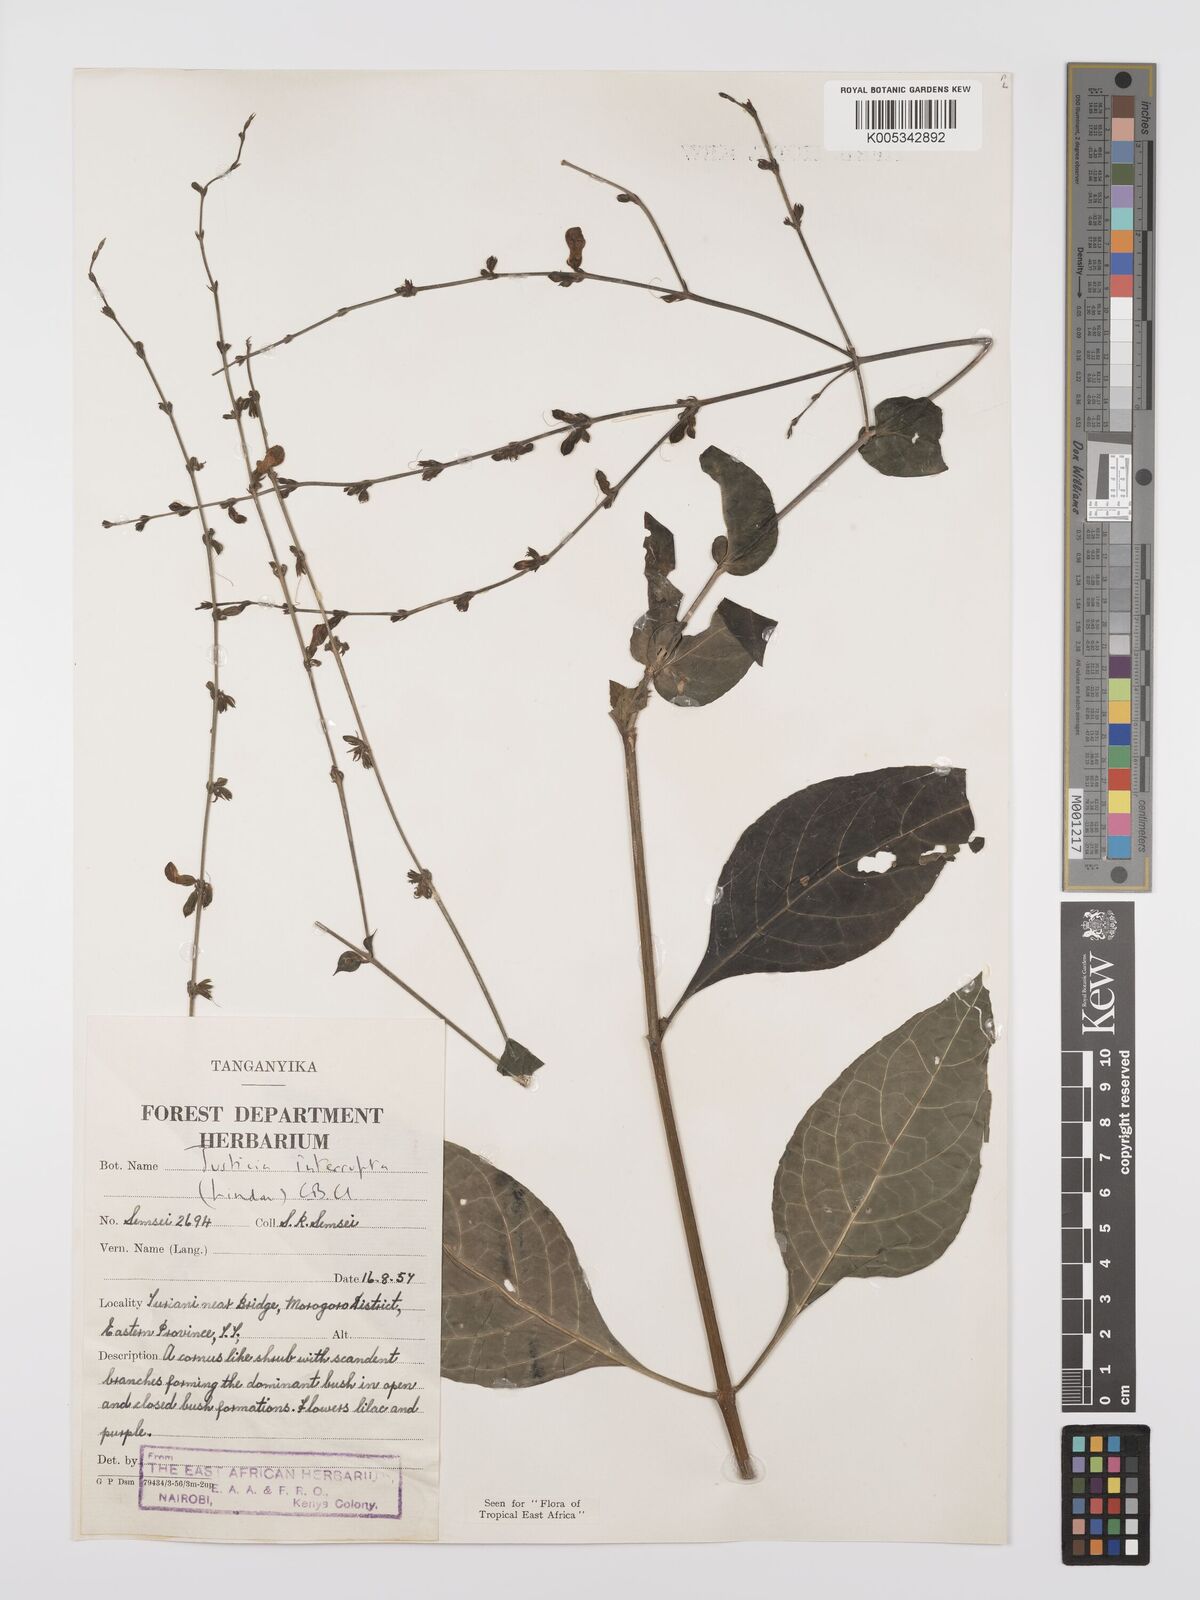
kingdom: Plantae
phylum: Tracheophyta
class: Magnoliopsida
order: Lamiales
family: Acanthaceae
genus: Justicia
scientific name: Justicia plectranthoides
